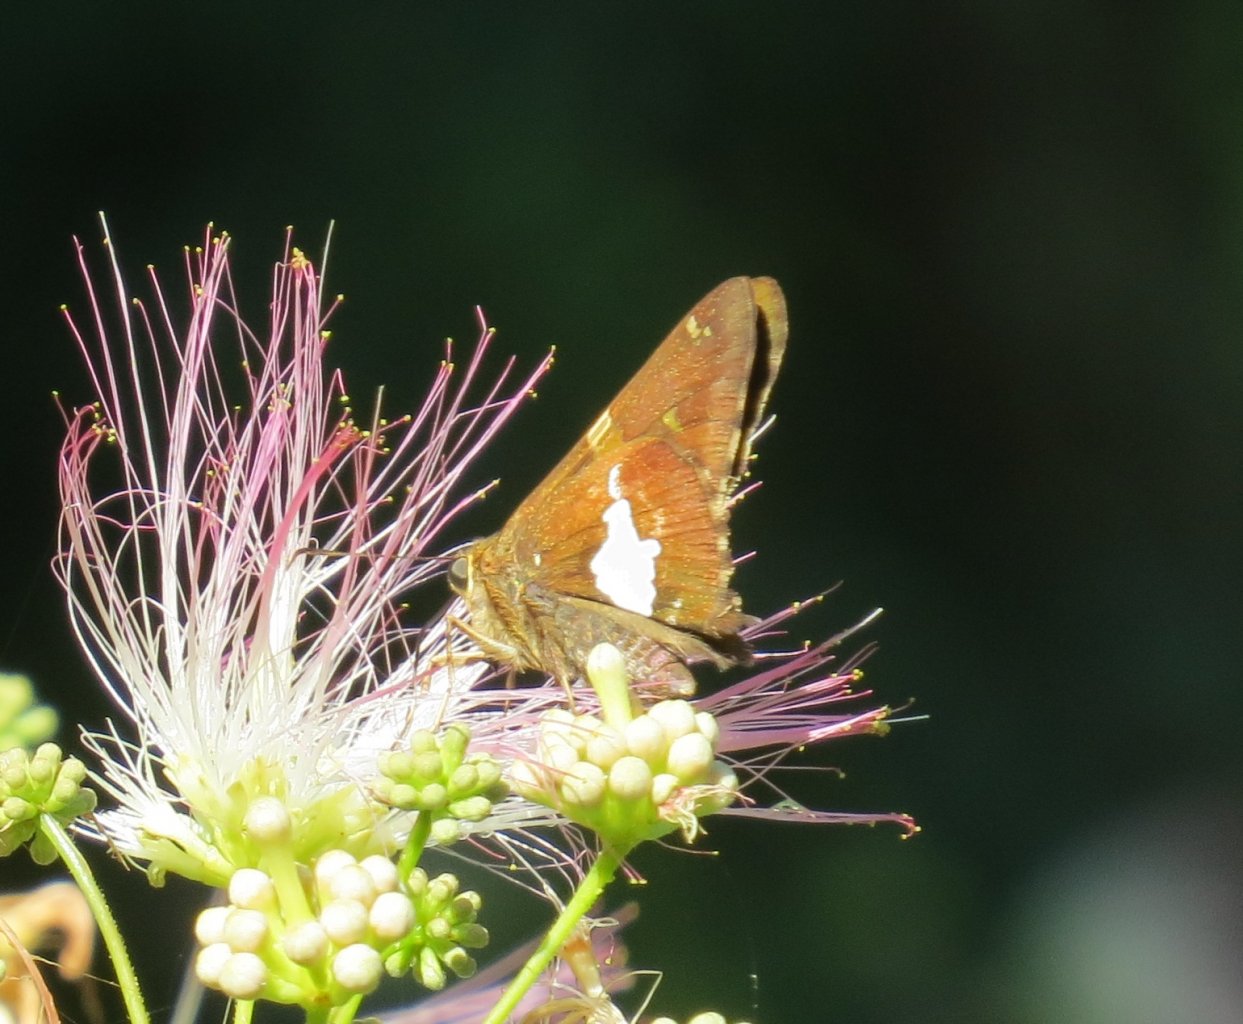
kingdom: Animalia
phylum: Arthropoda
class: Insecta
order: Lepidoptera
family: Hesperiidae
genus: Epargyreus
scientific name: Epargyreus clarus
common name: Silver-spotted Skipper
